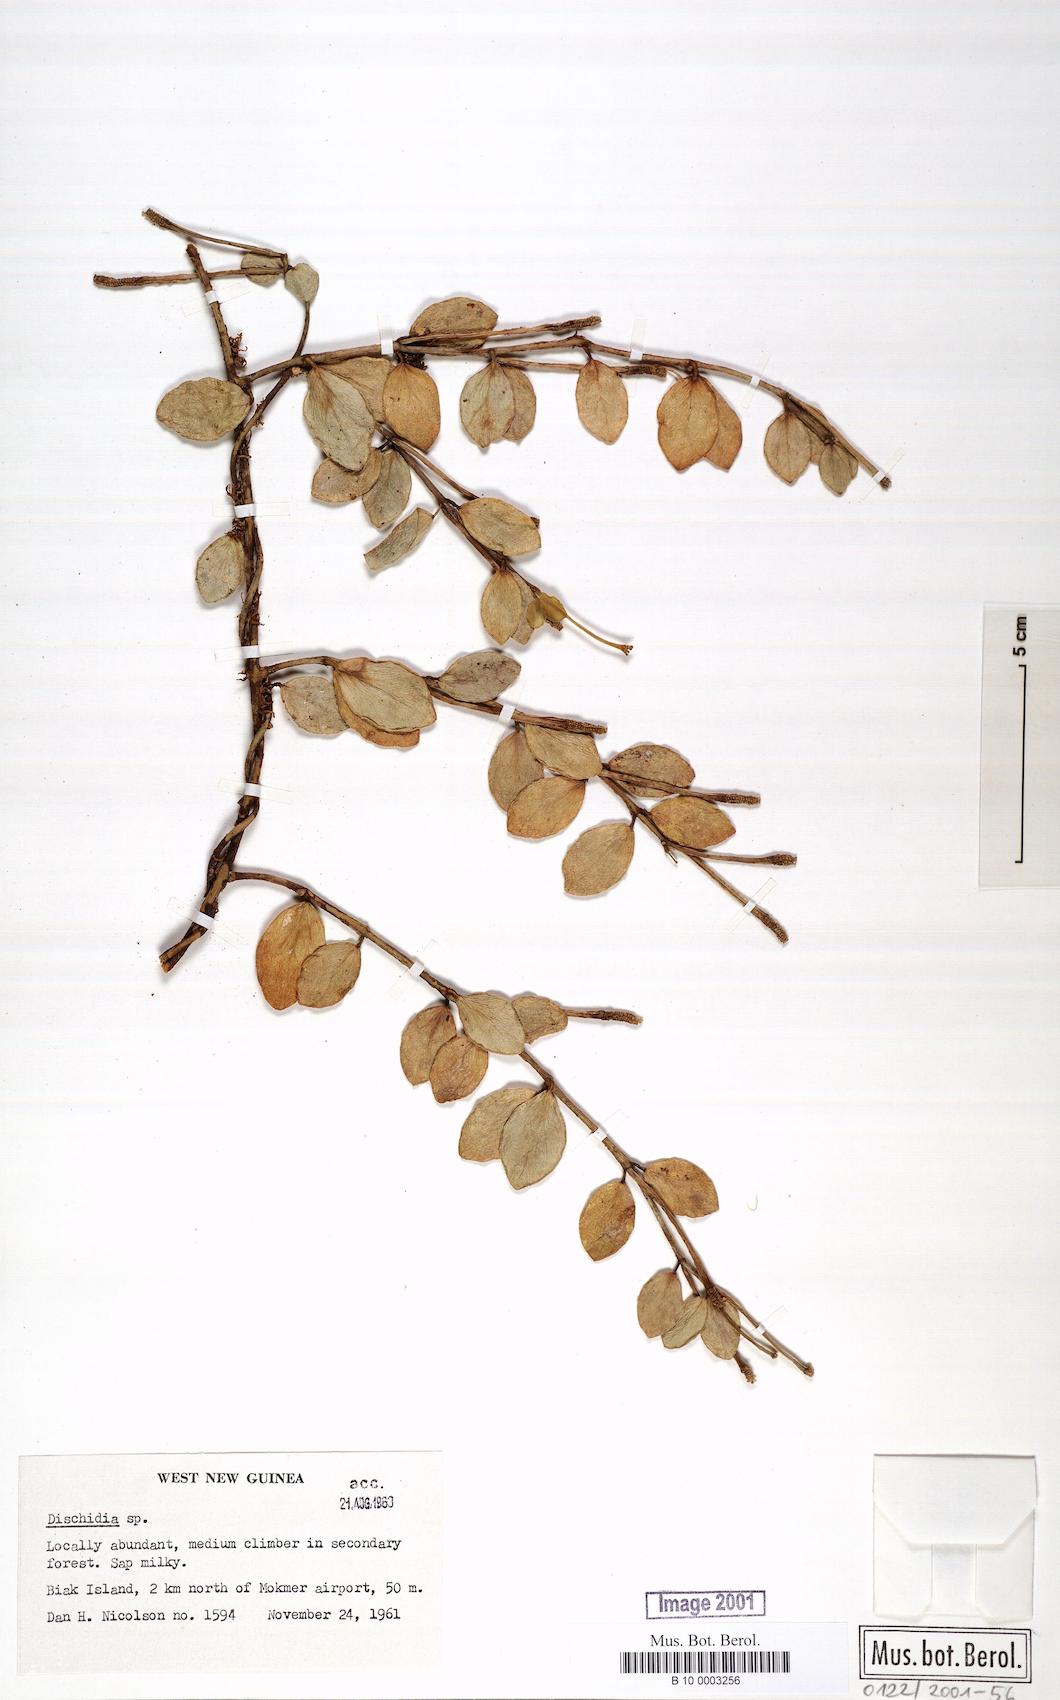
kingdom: Plantae
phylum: Tracheophyta
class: Magnoliopsida
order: Gentianales
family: Apocynaceae
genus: Dischidia
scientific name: Dischidia
